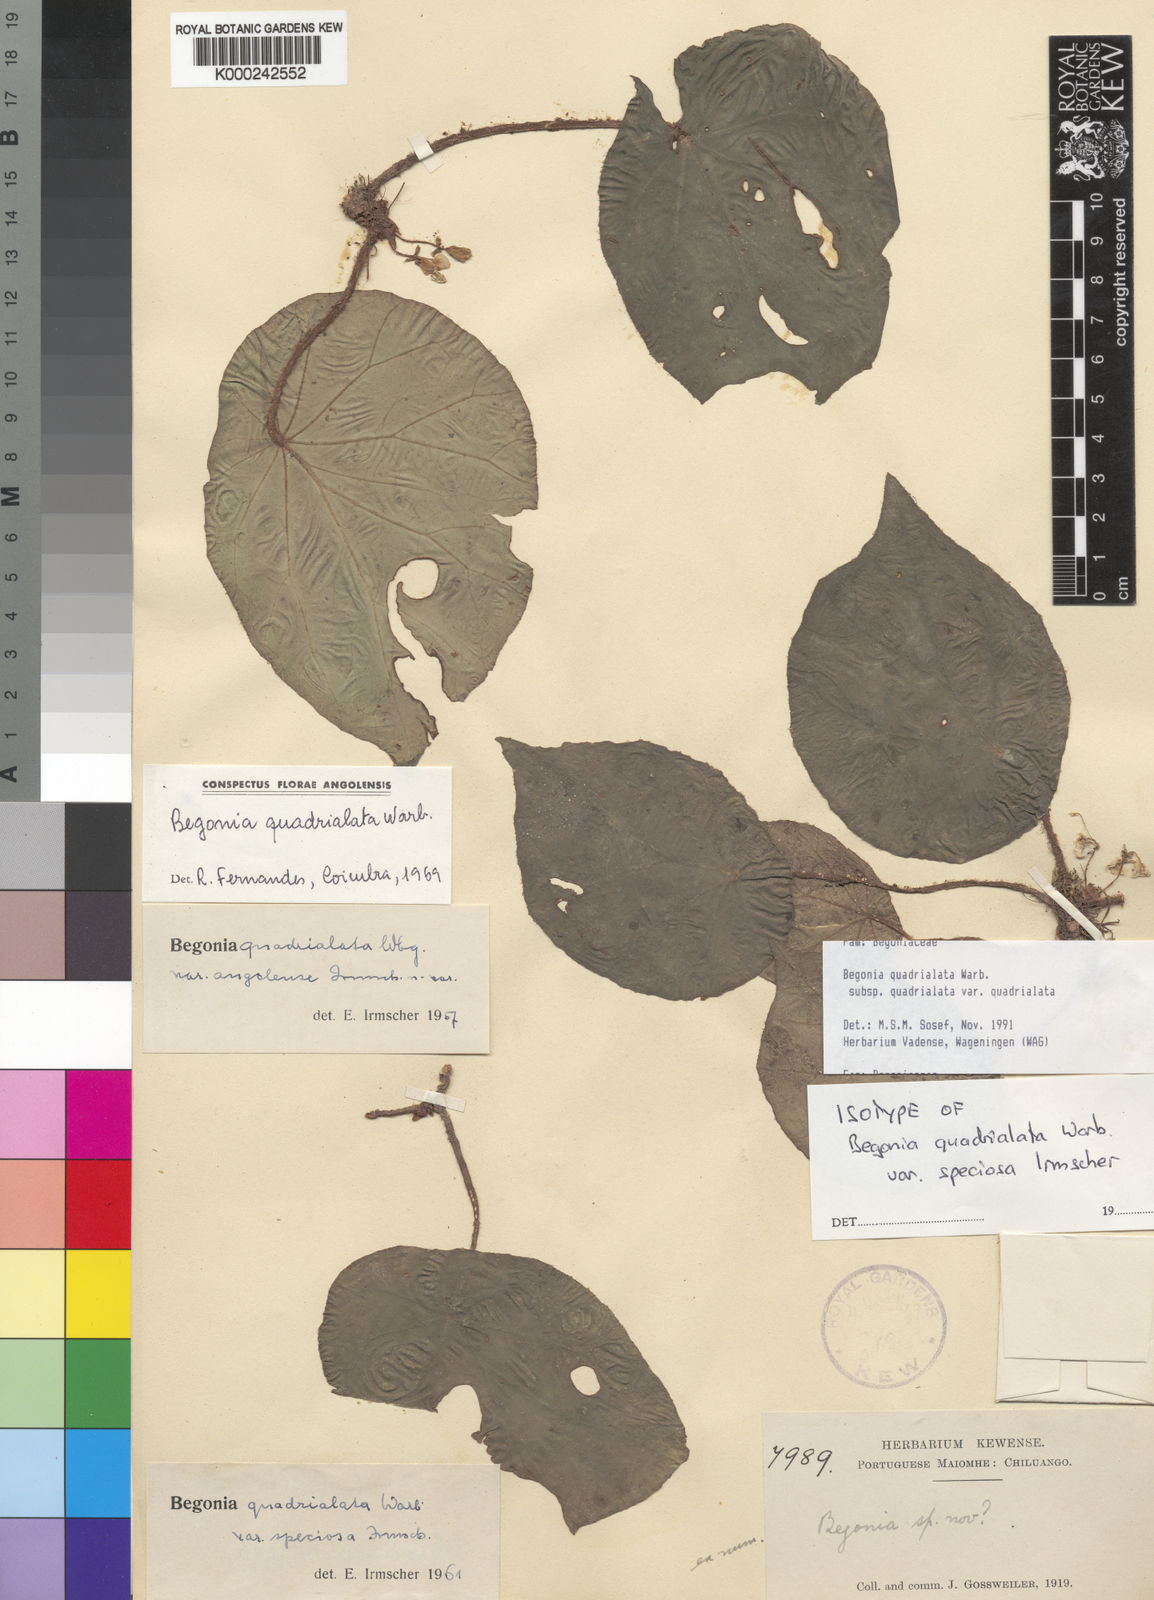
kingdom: Plantae
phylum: Tracheophyta
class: Magnoliopsida
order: Cucurbitales
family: Begoniaceae
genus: Begonia
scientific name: Begonia quadrialata
